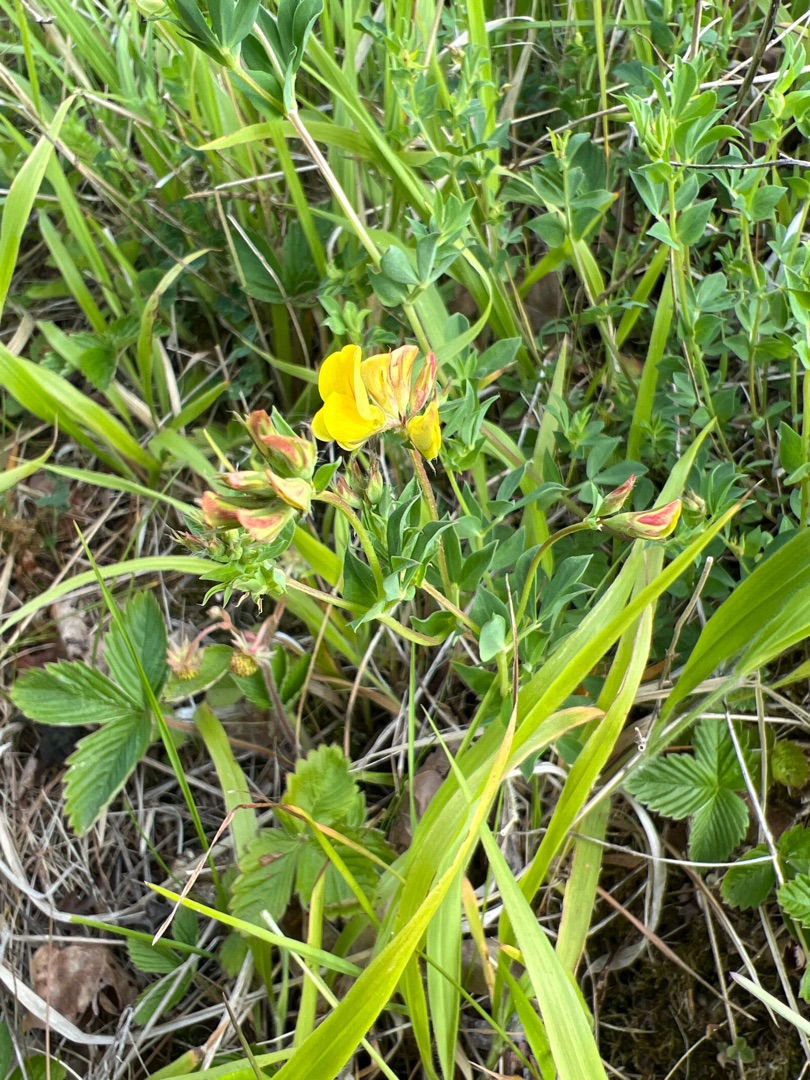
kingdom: Plantae
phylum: Tracheophyta
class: Magnoliopsida
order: Fabales
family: Fabaceae
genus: Lotus
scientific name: Lotus corniculatus
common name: Almindelig kællingetand
